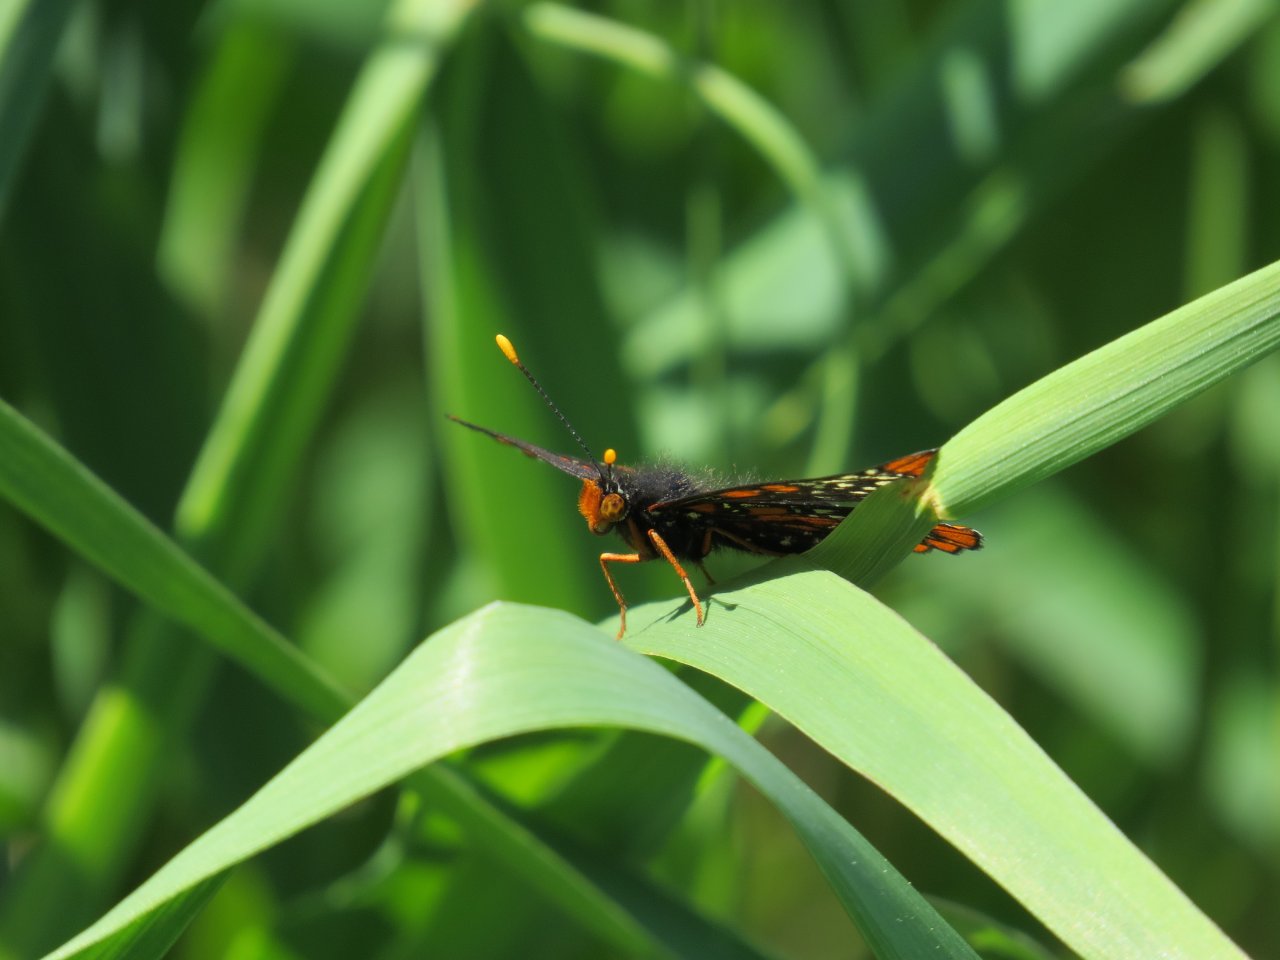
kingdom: Animalia
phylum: Arthropoda
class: Insecta
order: Lepidoptera
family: Nymphalidae
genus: Euphydryas
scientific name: Euphydryas phaeton
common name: Baltimore Checkerspot
